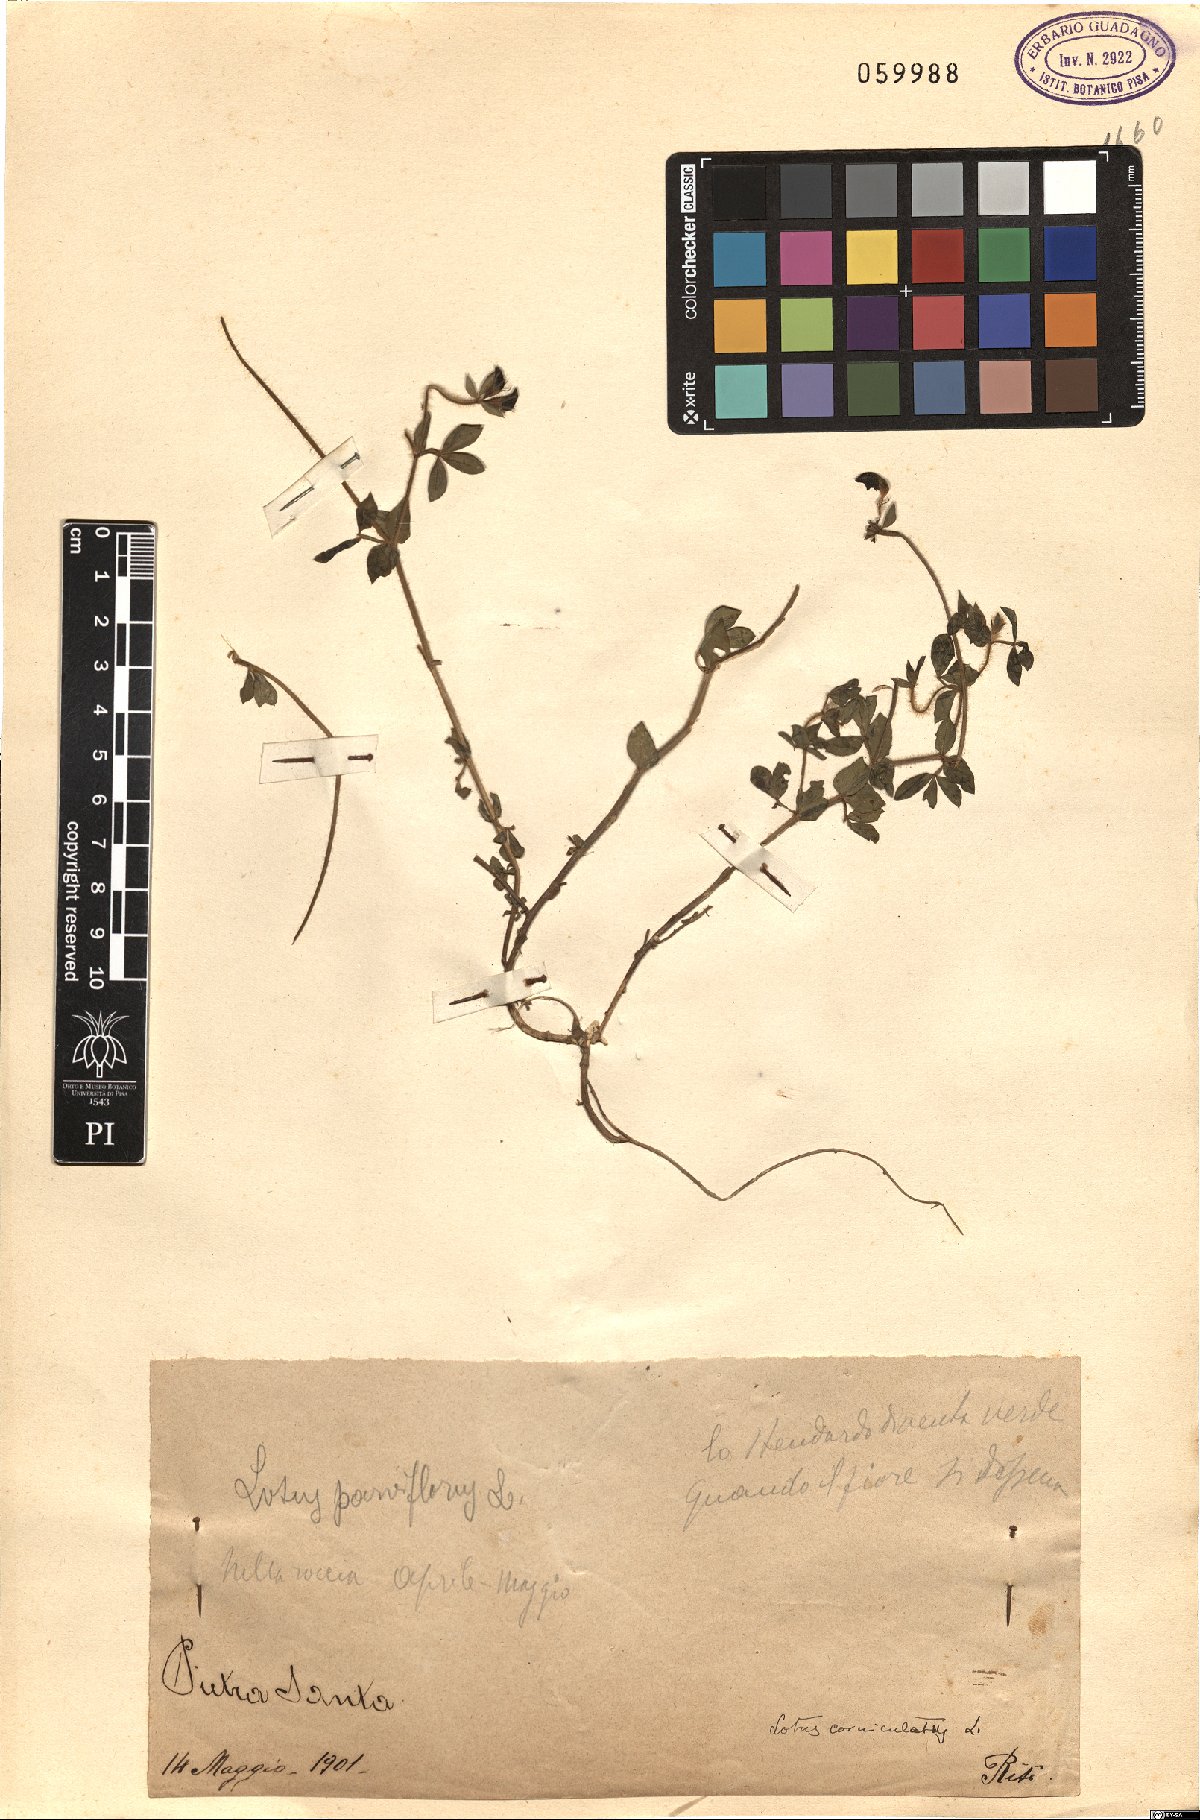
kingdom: Plantae
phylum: Tracheophyta
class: Magnoliopsida
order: Fabales
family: Fabaceae
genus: Lotus
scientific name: Lotus corniculatus
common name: Common bird's-foot-trefoil
